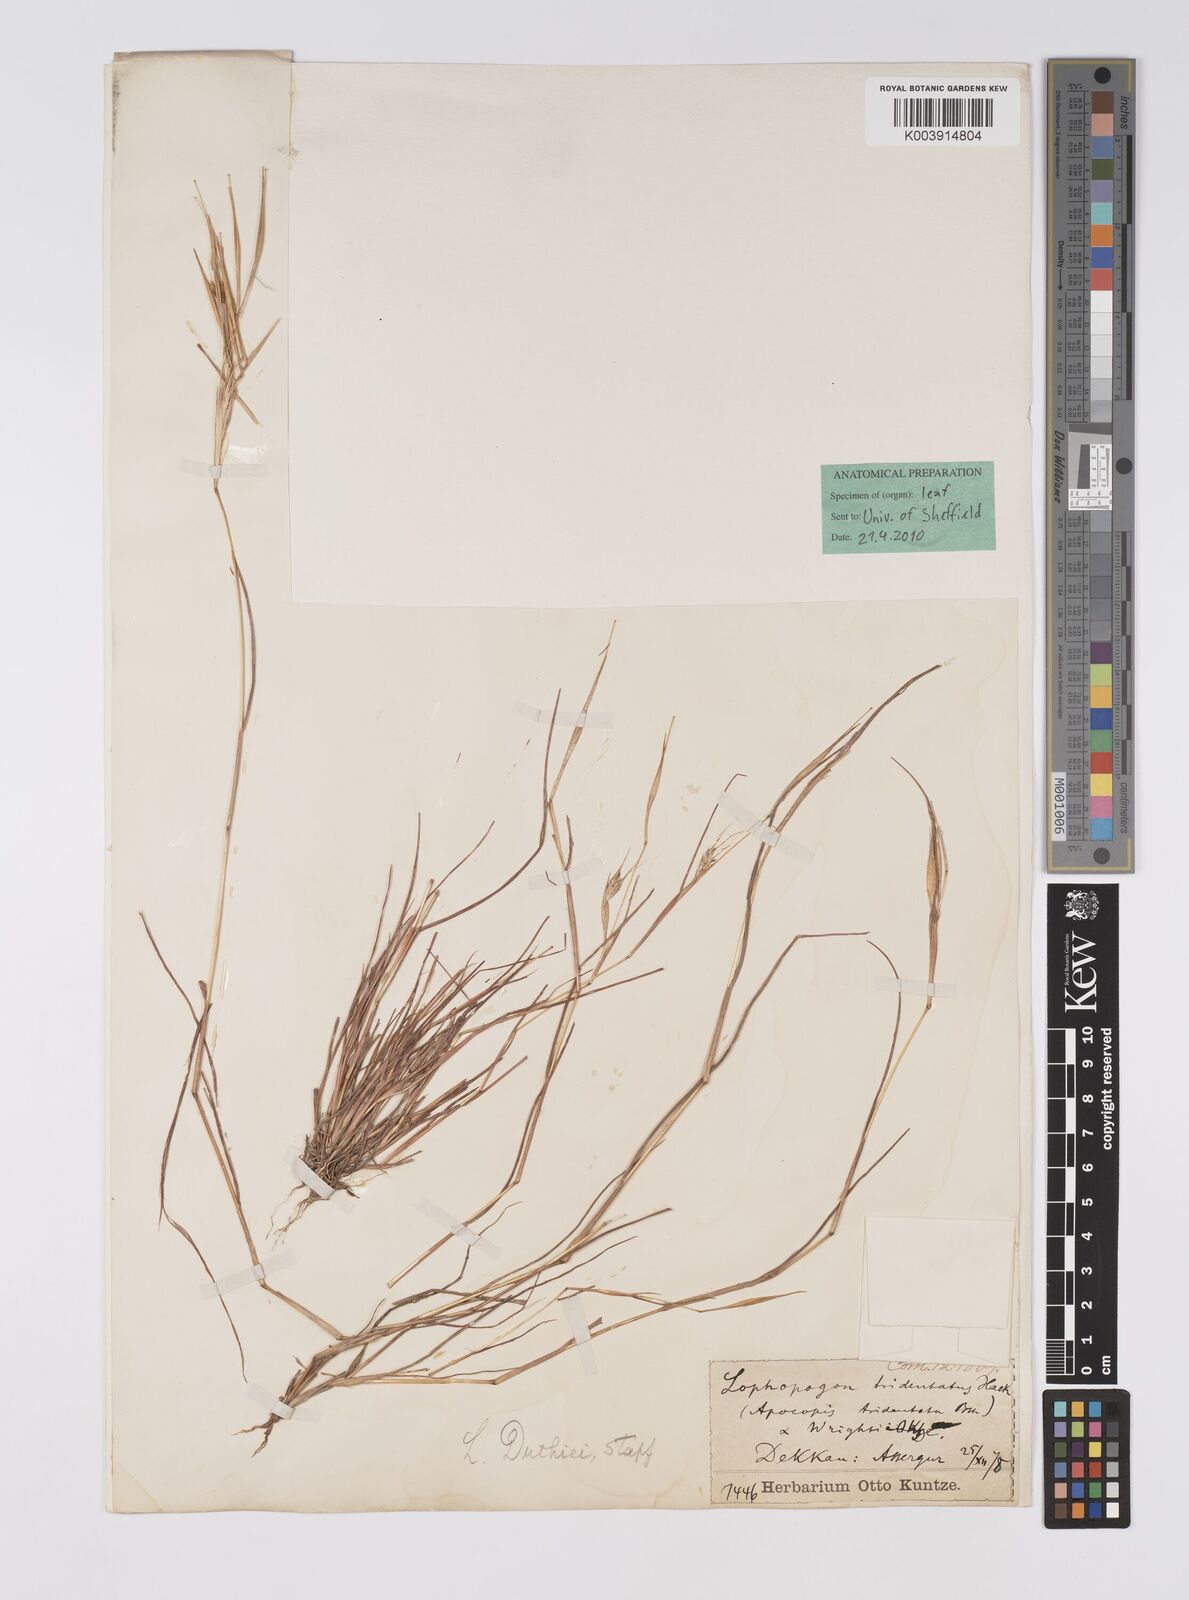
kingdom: Plantae
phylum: Tracheophyta
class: Liliopsida
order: Poales
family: Poaceae
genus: Lophopogon
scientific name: Lophopogon tridentatus
